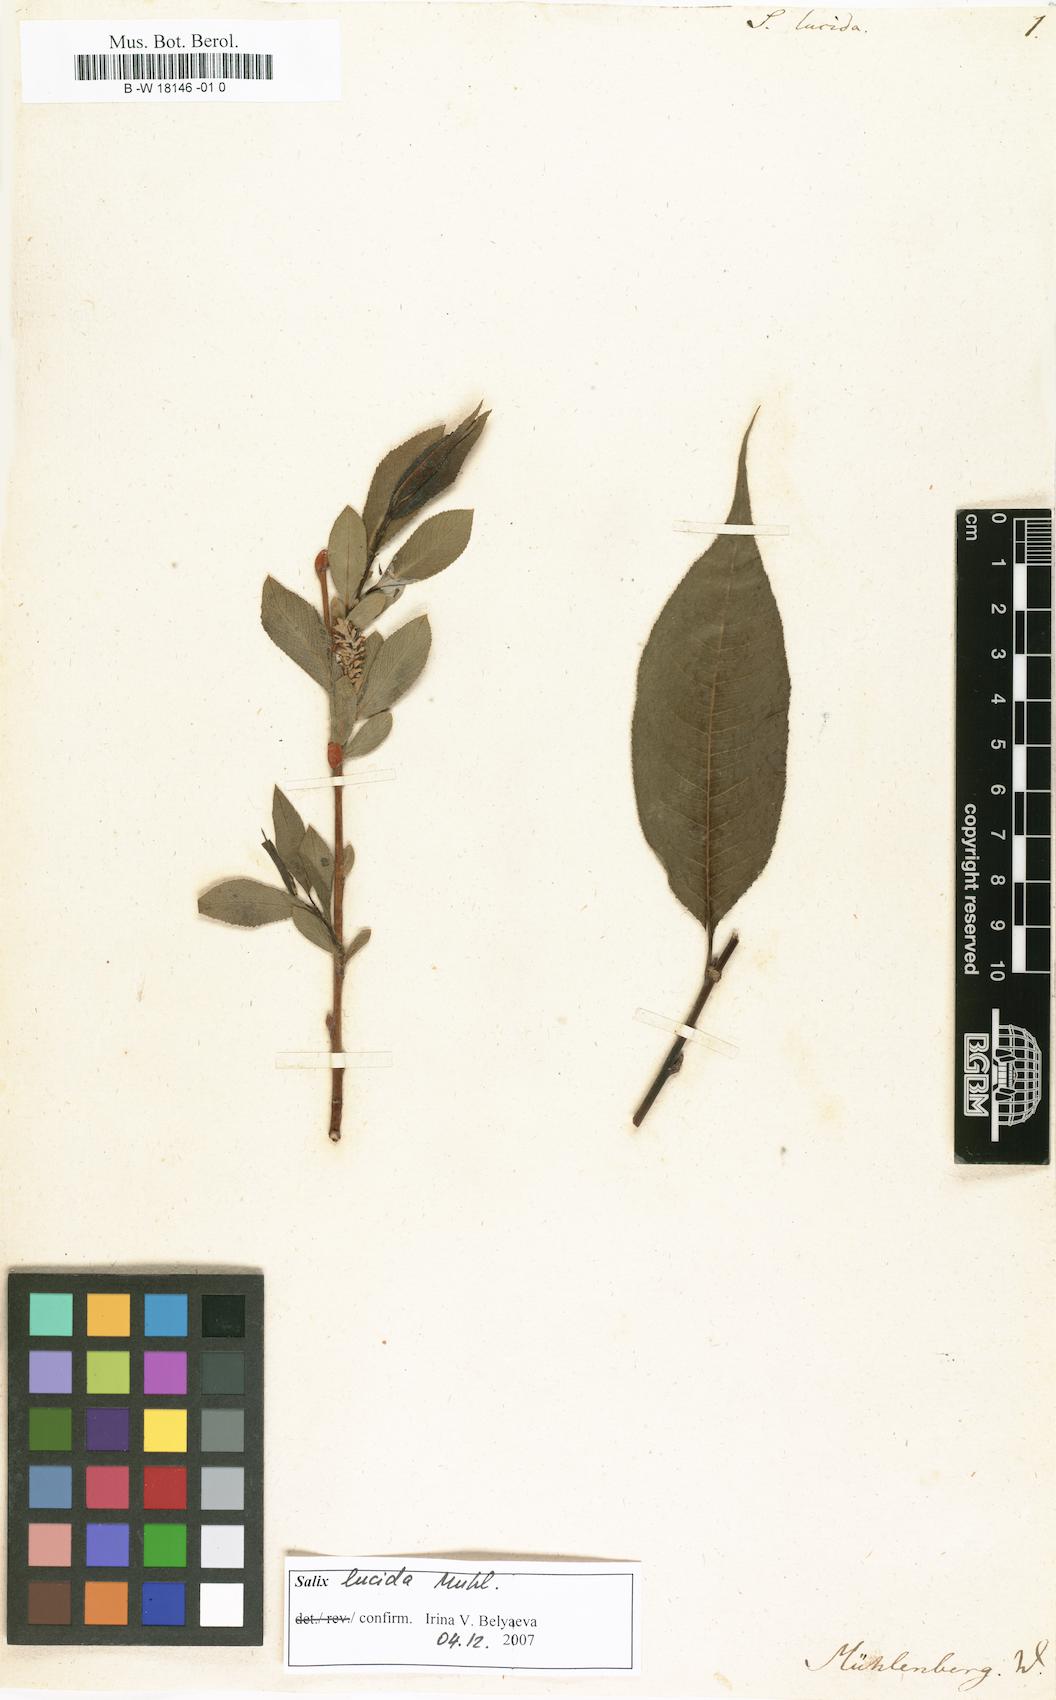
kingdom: Plantae
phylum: Tracheophyta
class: Magnoliopsida
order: Malpighiales
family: Salicaceae
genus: Salix
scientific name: Salix lucida
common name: Shining willow
